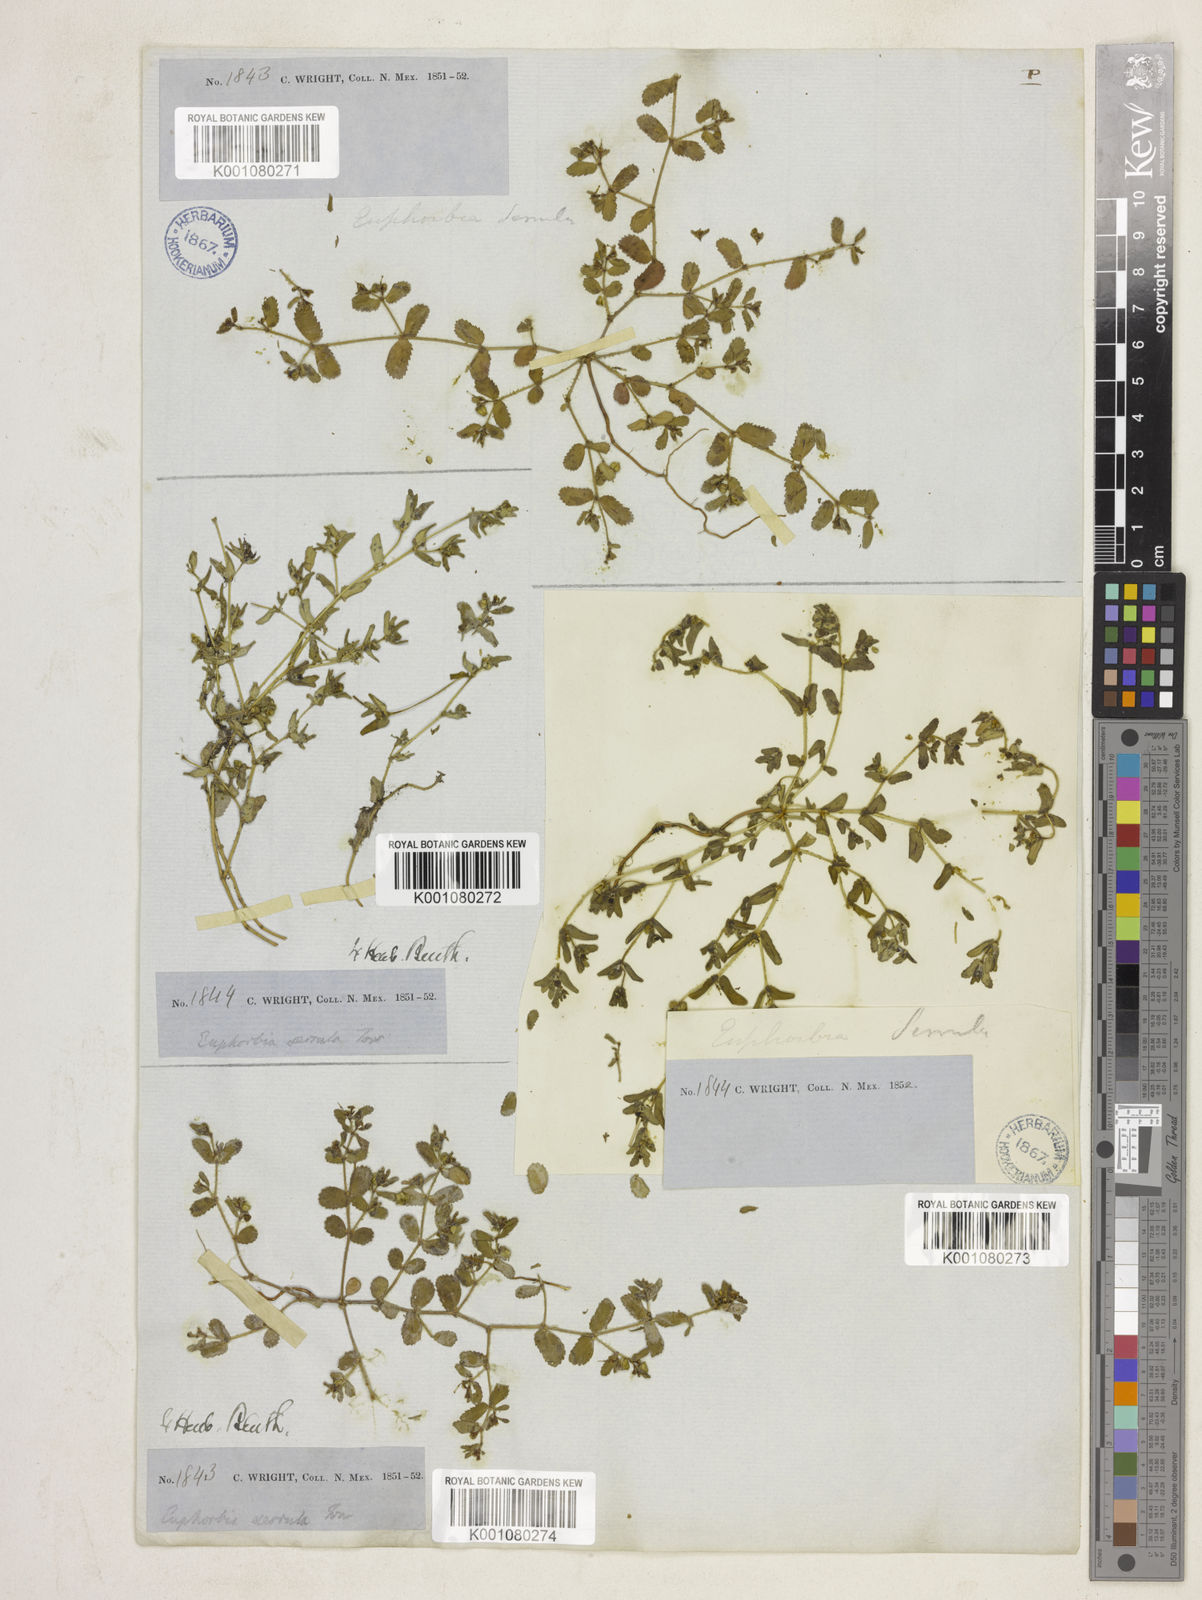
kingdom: Plantae
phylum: Tracheophyta
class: Magnoliopsida
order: Malpighiales
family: Euphorbiaceae
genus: Euphorbia
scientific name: Euphorbia serrula
